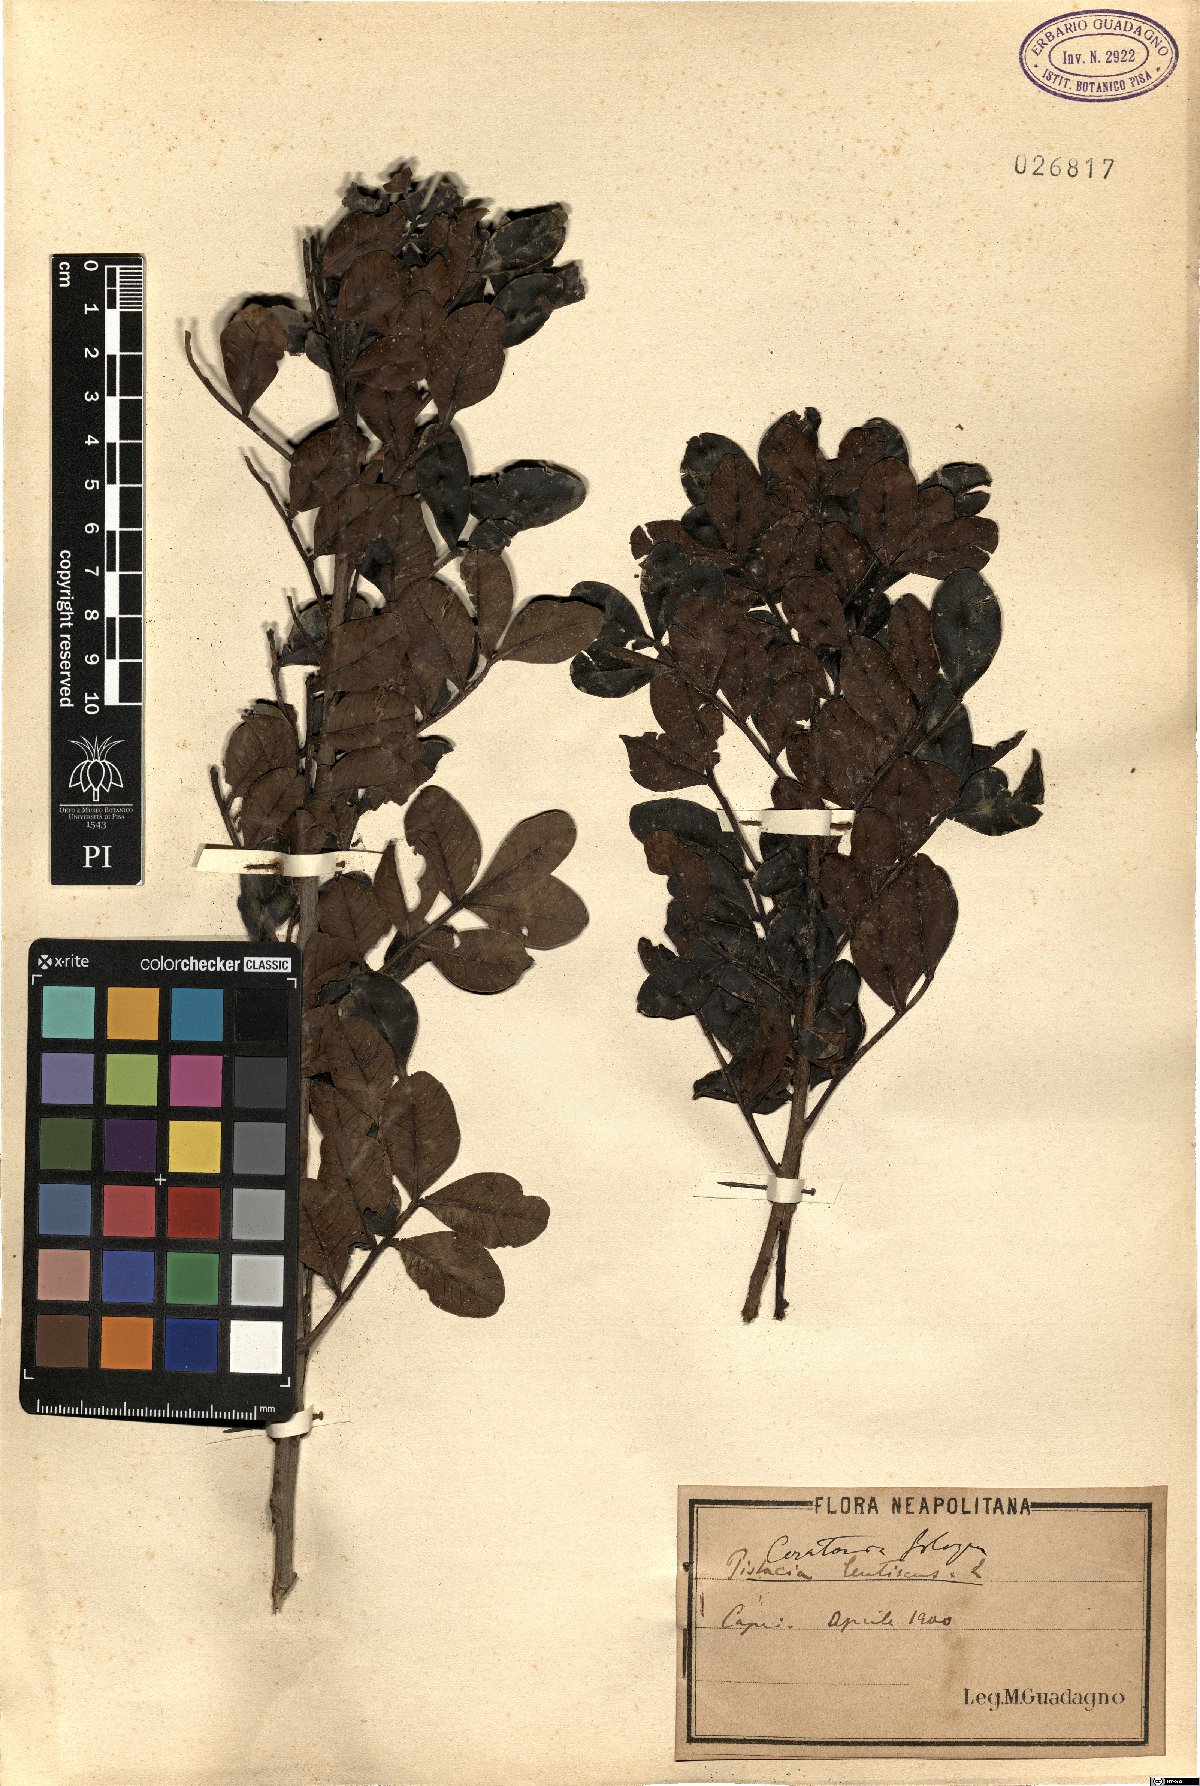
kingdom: Plantae
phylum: Tracheophyta
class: Magnoliopsida
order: Fabales
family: Fabaceae
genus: Ceratonia
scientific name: Ceratonia siliqua
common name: Carob
